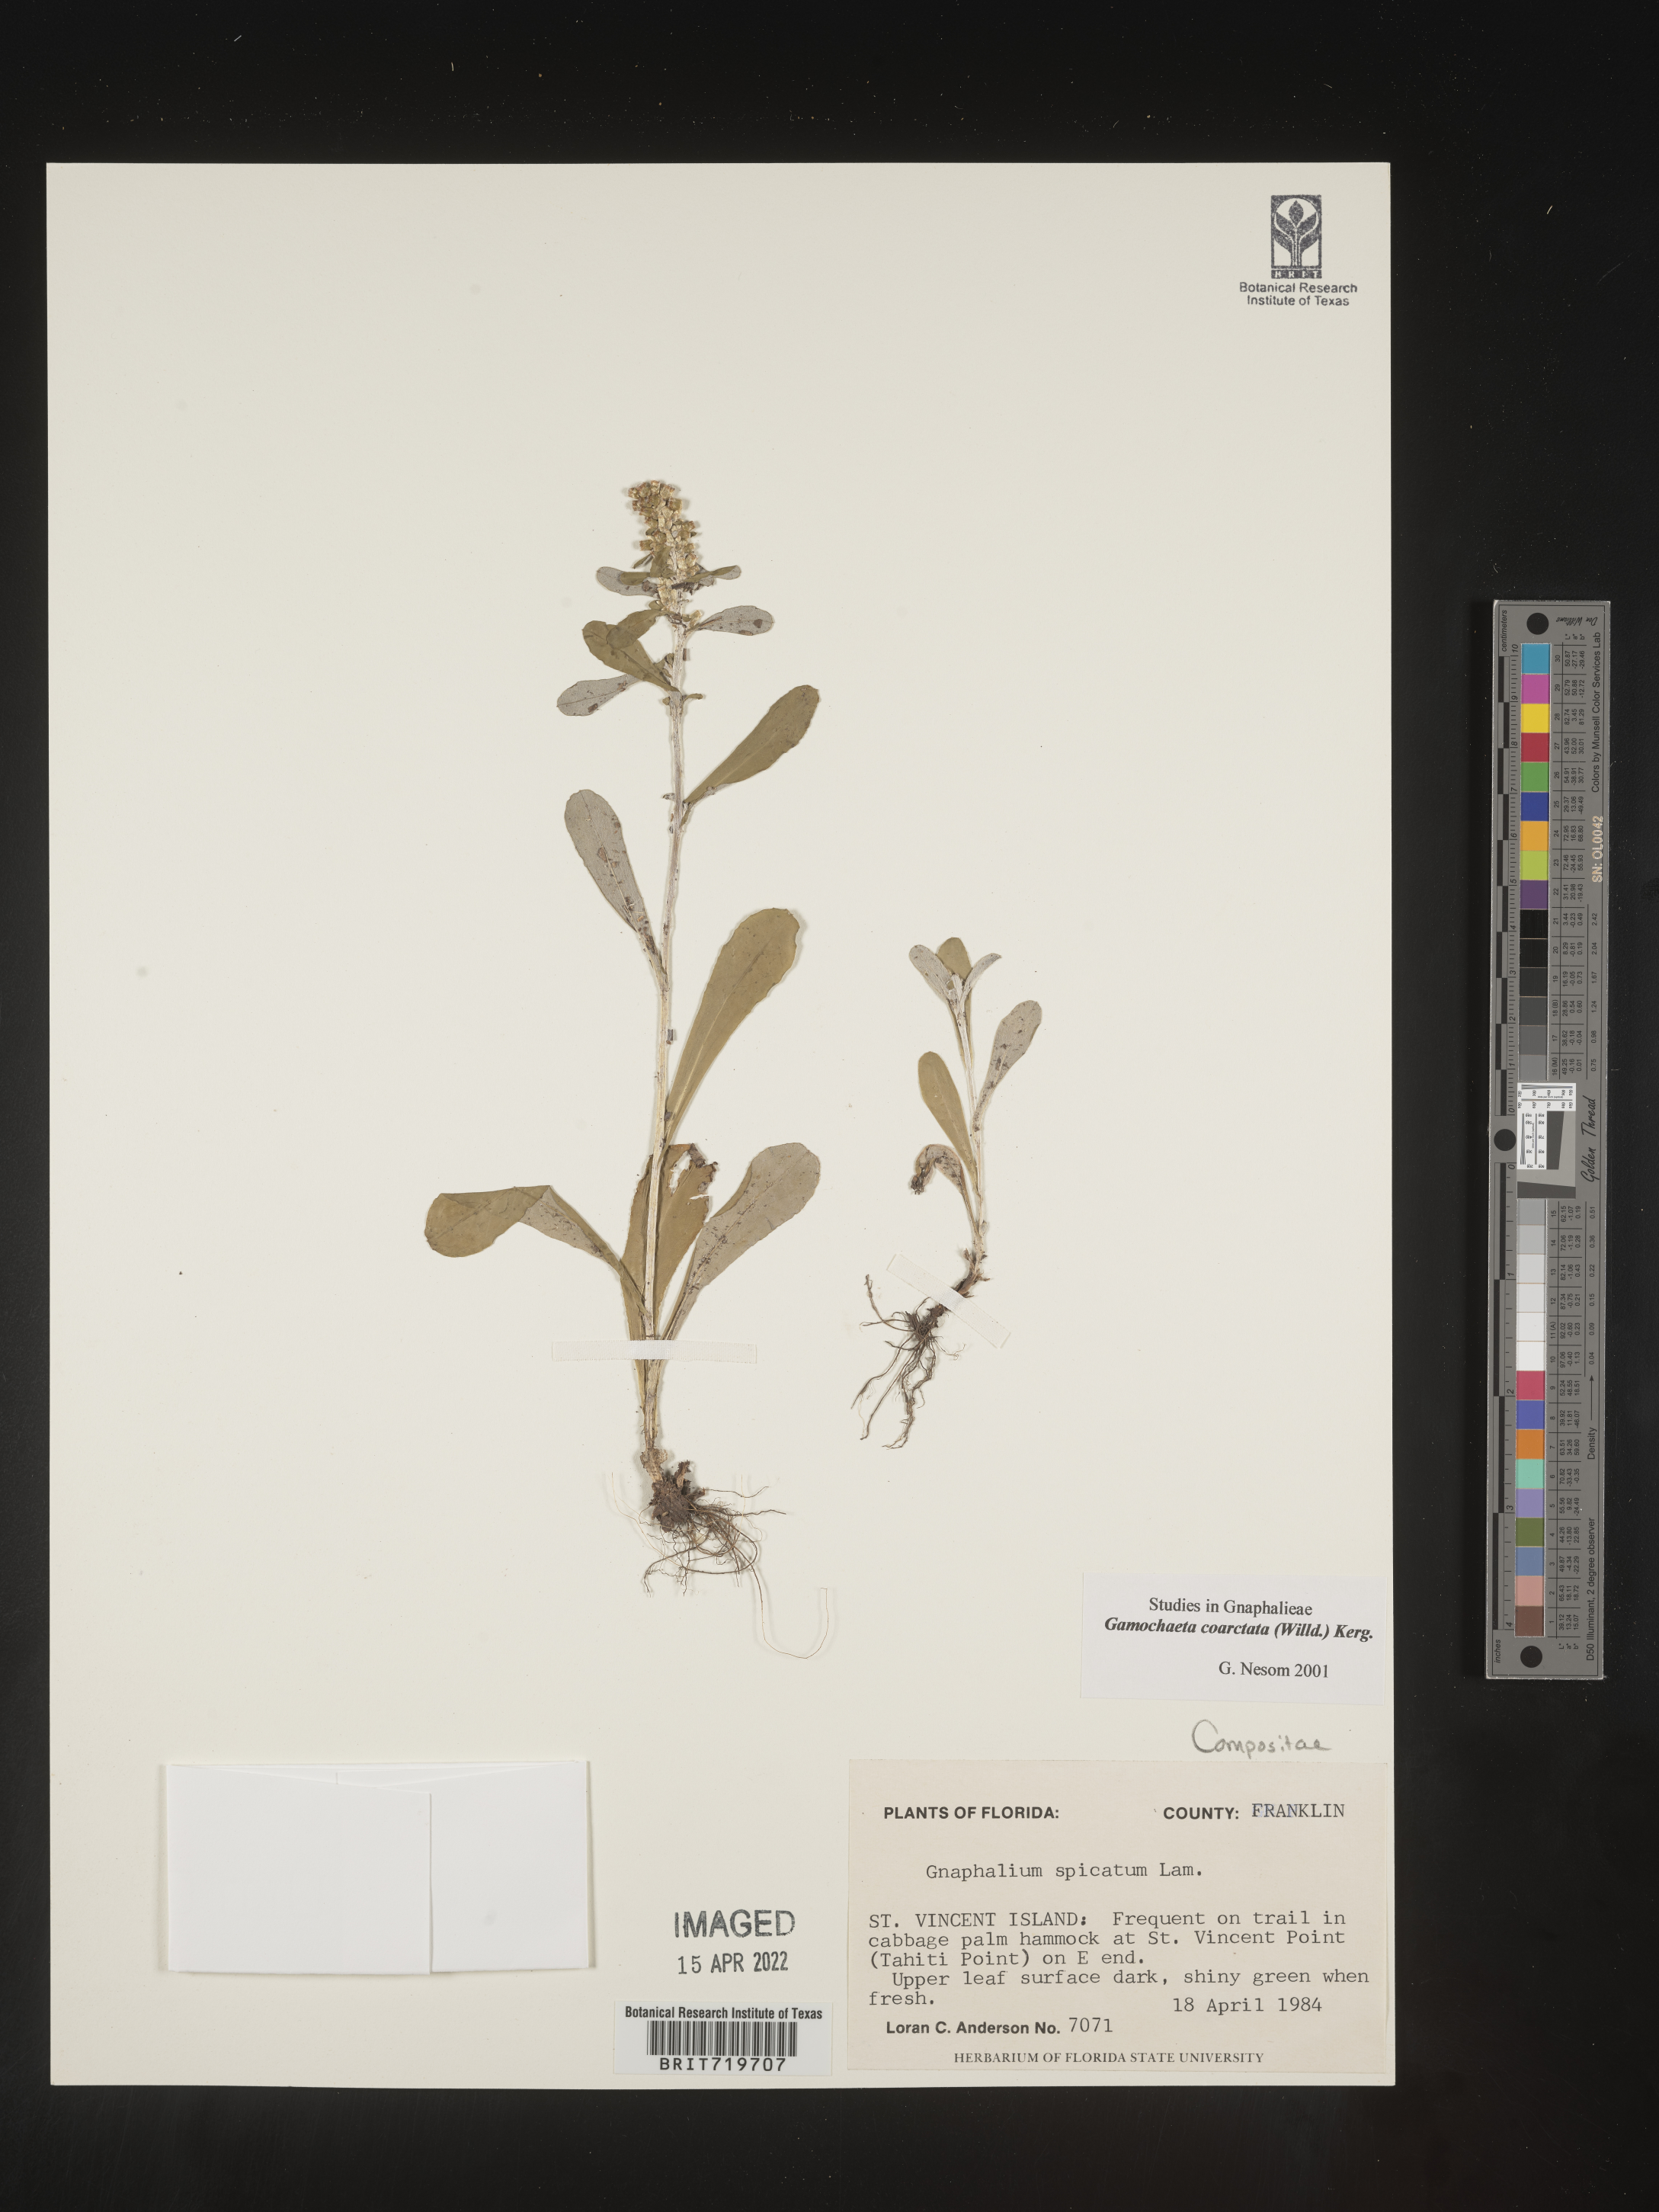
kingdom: Plantae
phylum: Tracheophyta
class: Magnoliopsida
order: Asterales
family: Asteraceae
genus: Gamochaeta
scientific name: Gamochaeta americana
